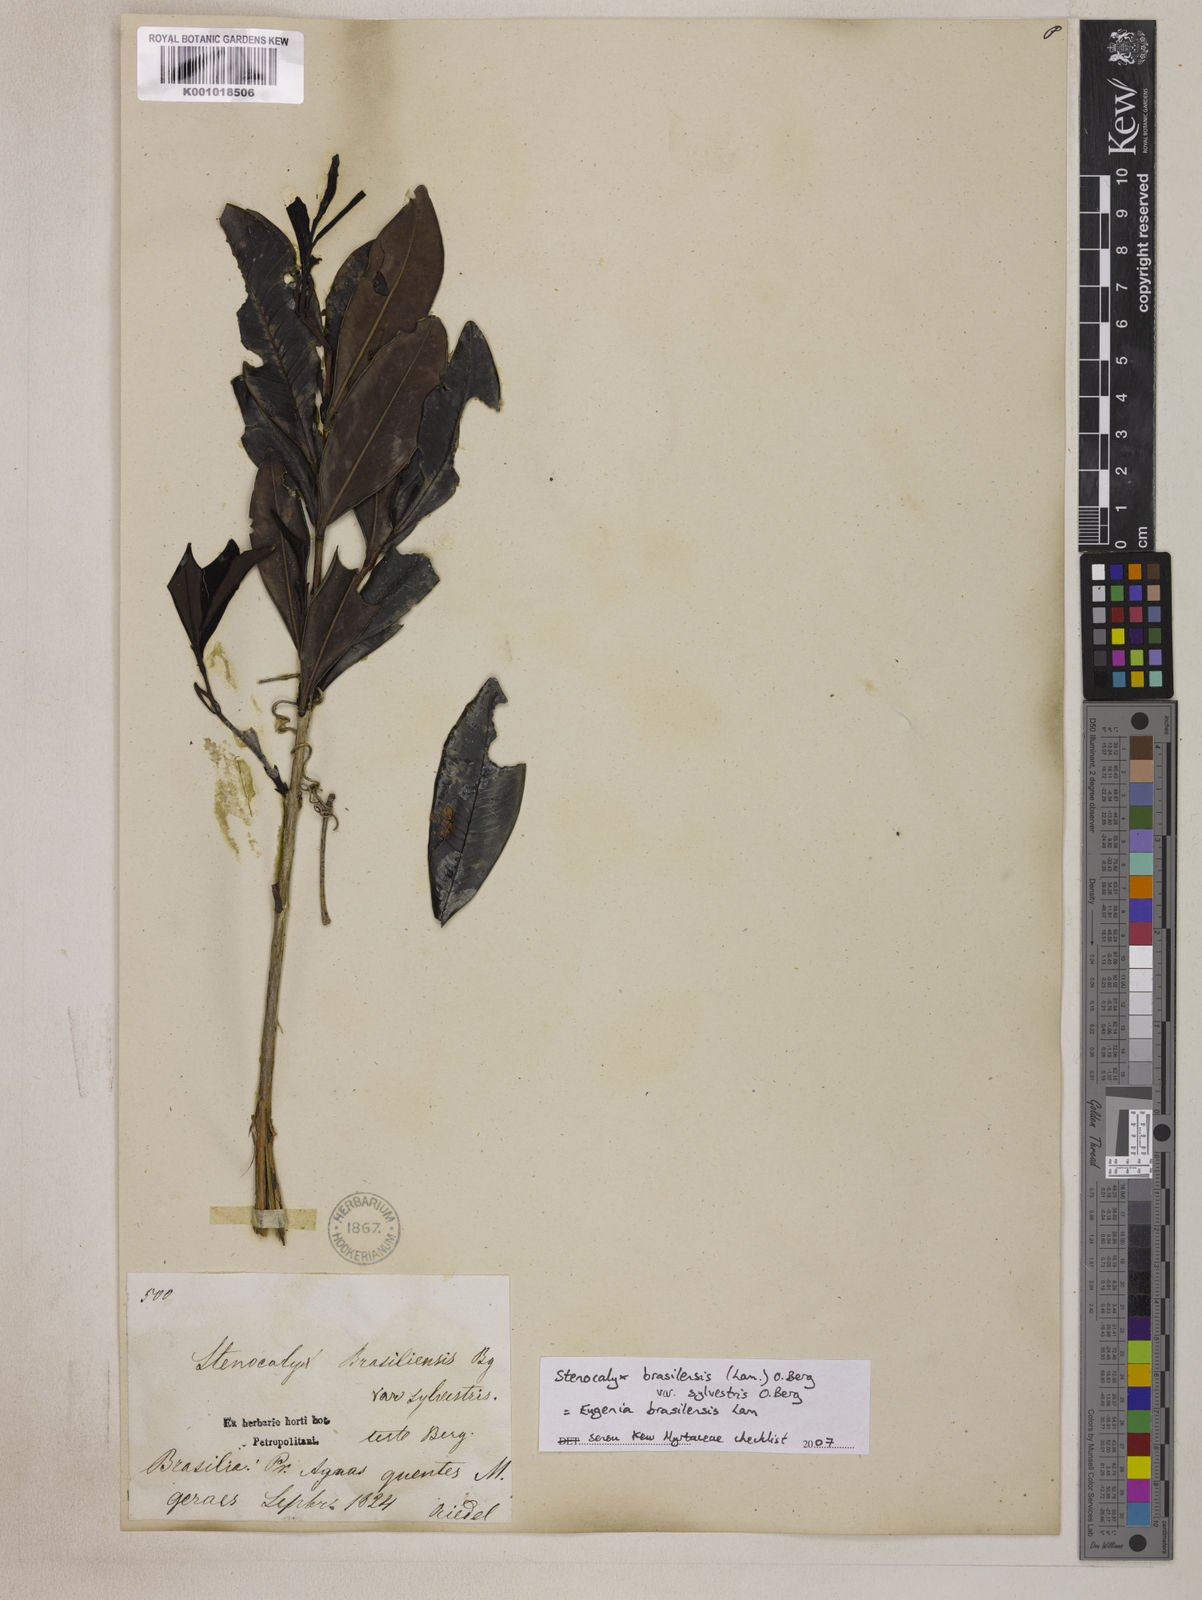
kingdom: Plantae
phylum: Tracheophyta
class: Magnoliopsida
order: Myrtales
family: Myrtaceae
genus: Eugenia
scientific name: Eugenia brasiliensis
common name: Grumichama
